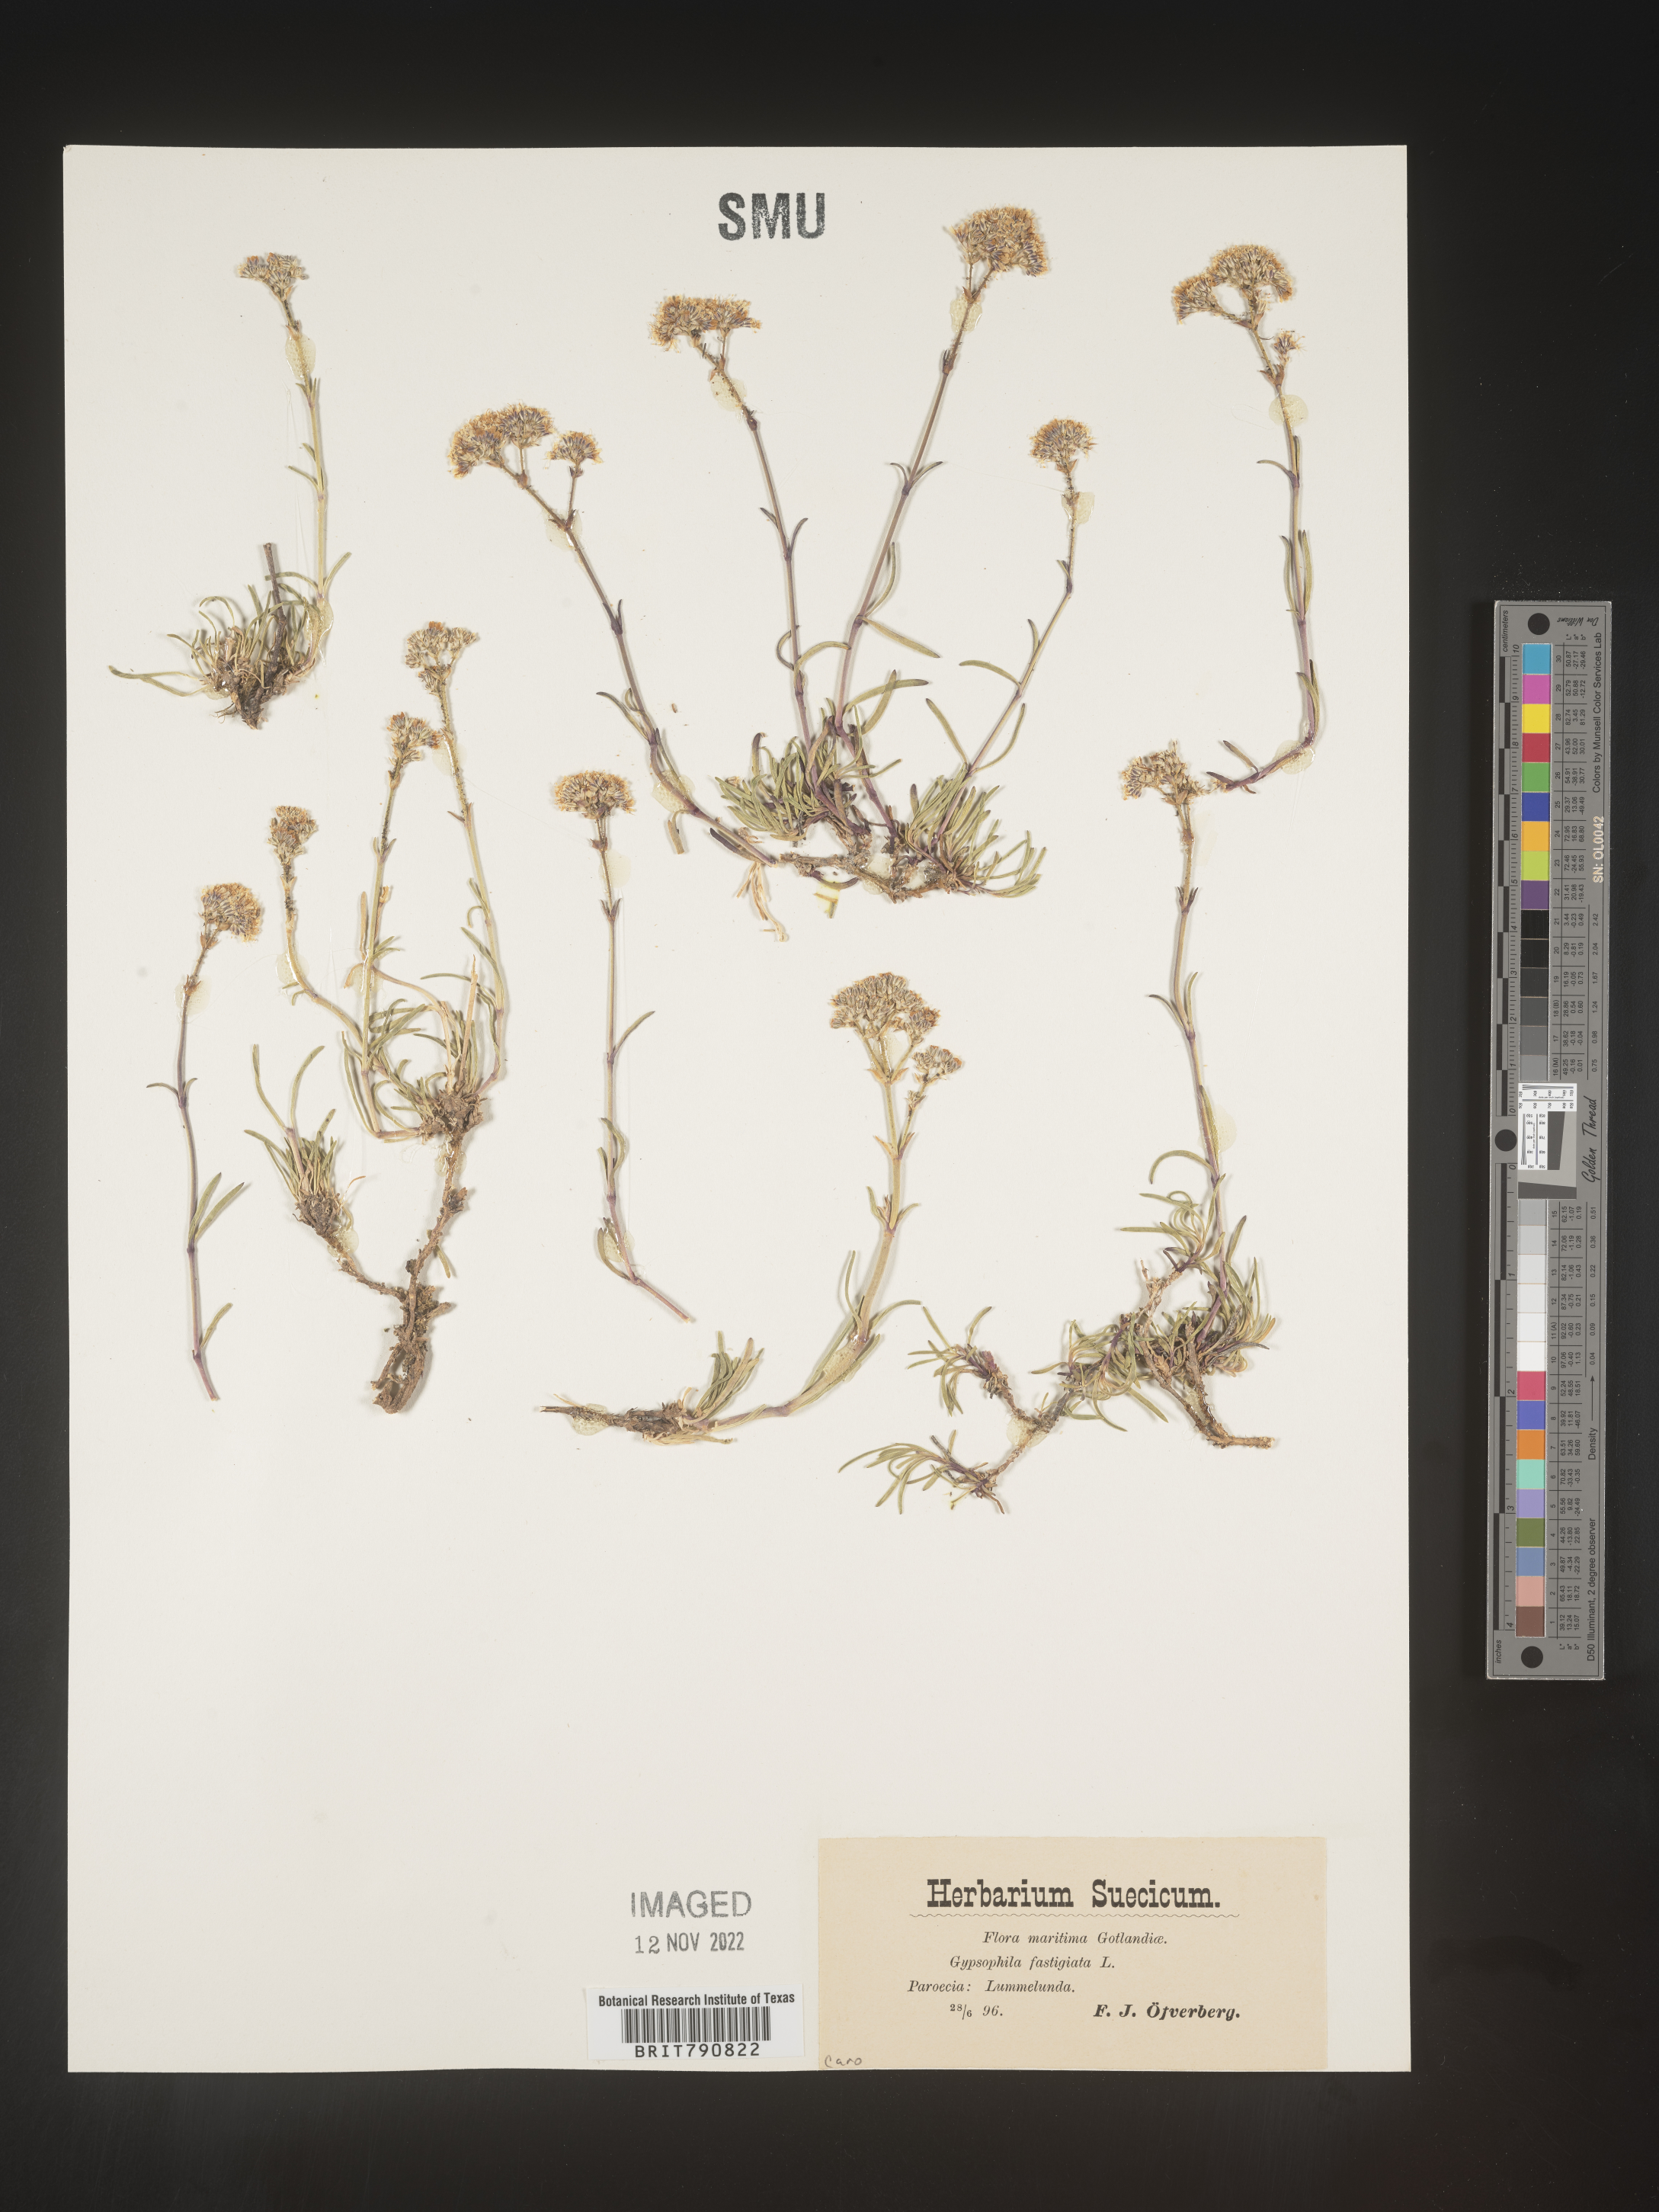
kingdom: Plantae
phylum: Tracheophyta
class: Magnoliopsida
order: Caryophyllales
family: Caryophyllaceae
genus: Gypsophila
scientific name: Gypsophila
